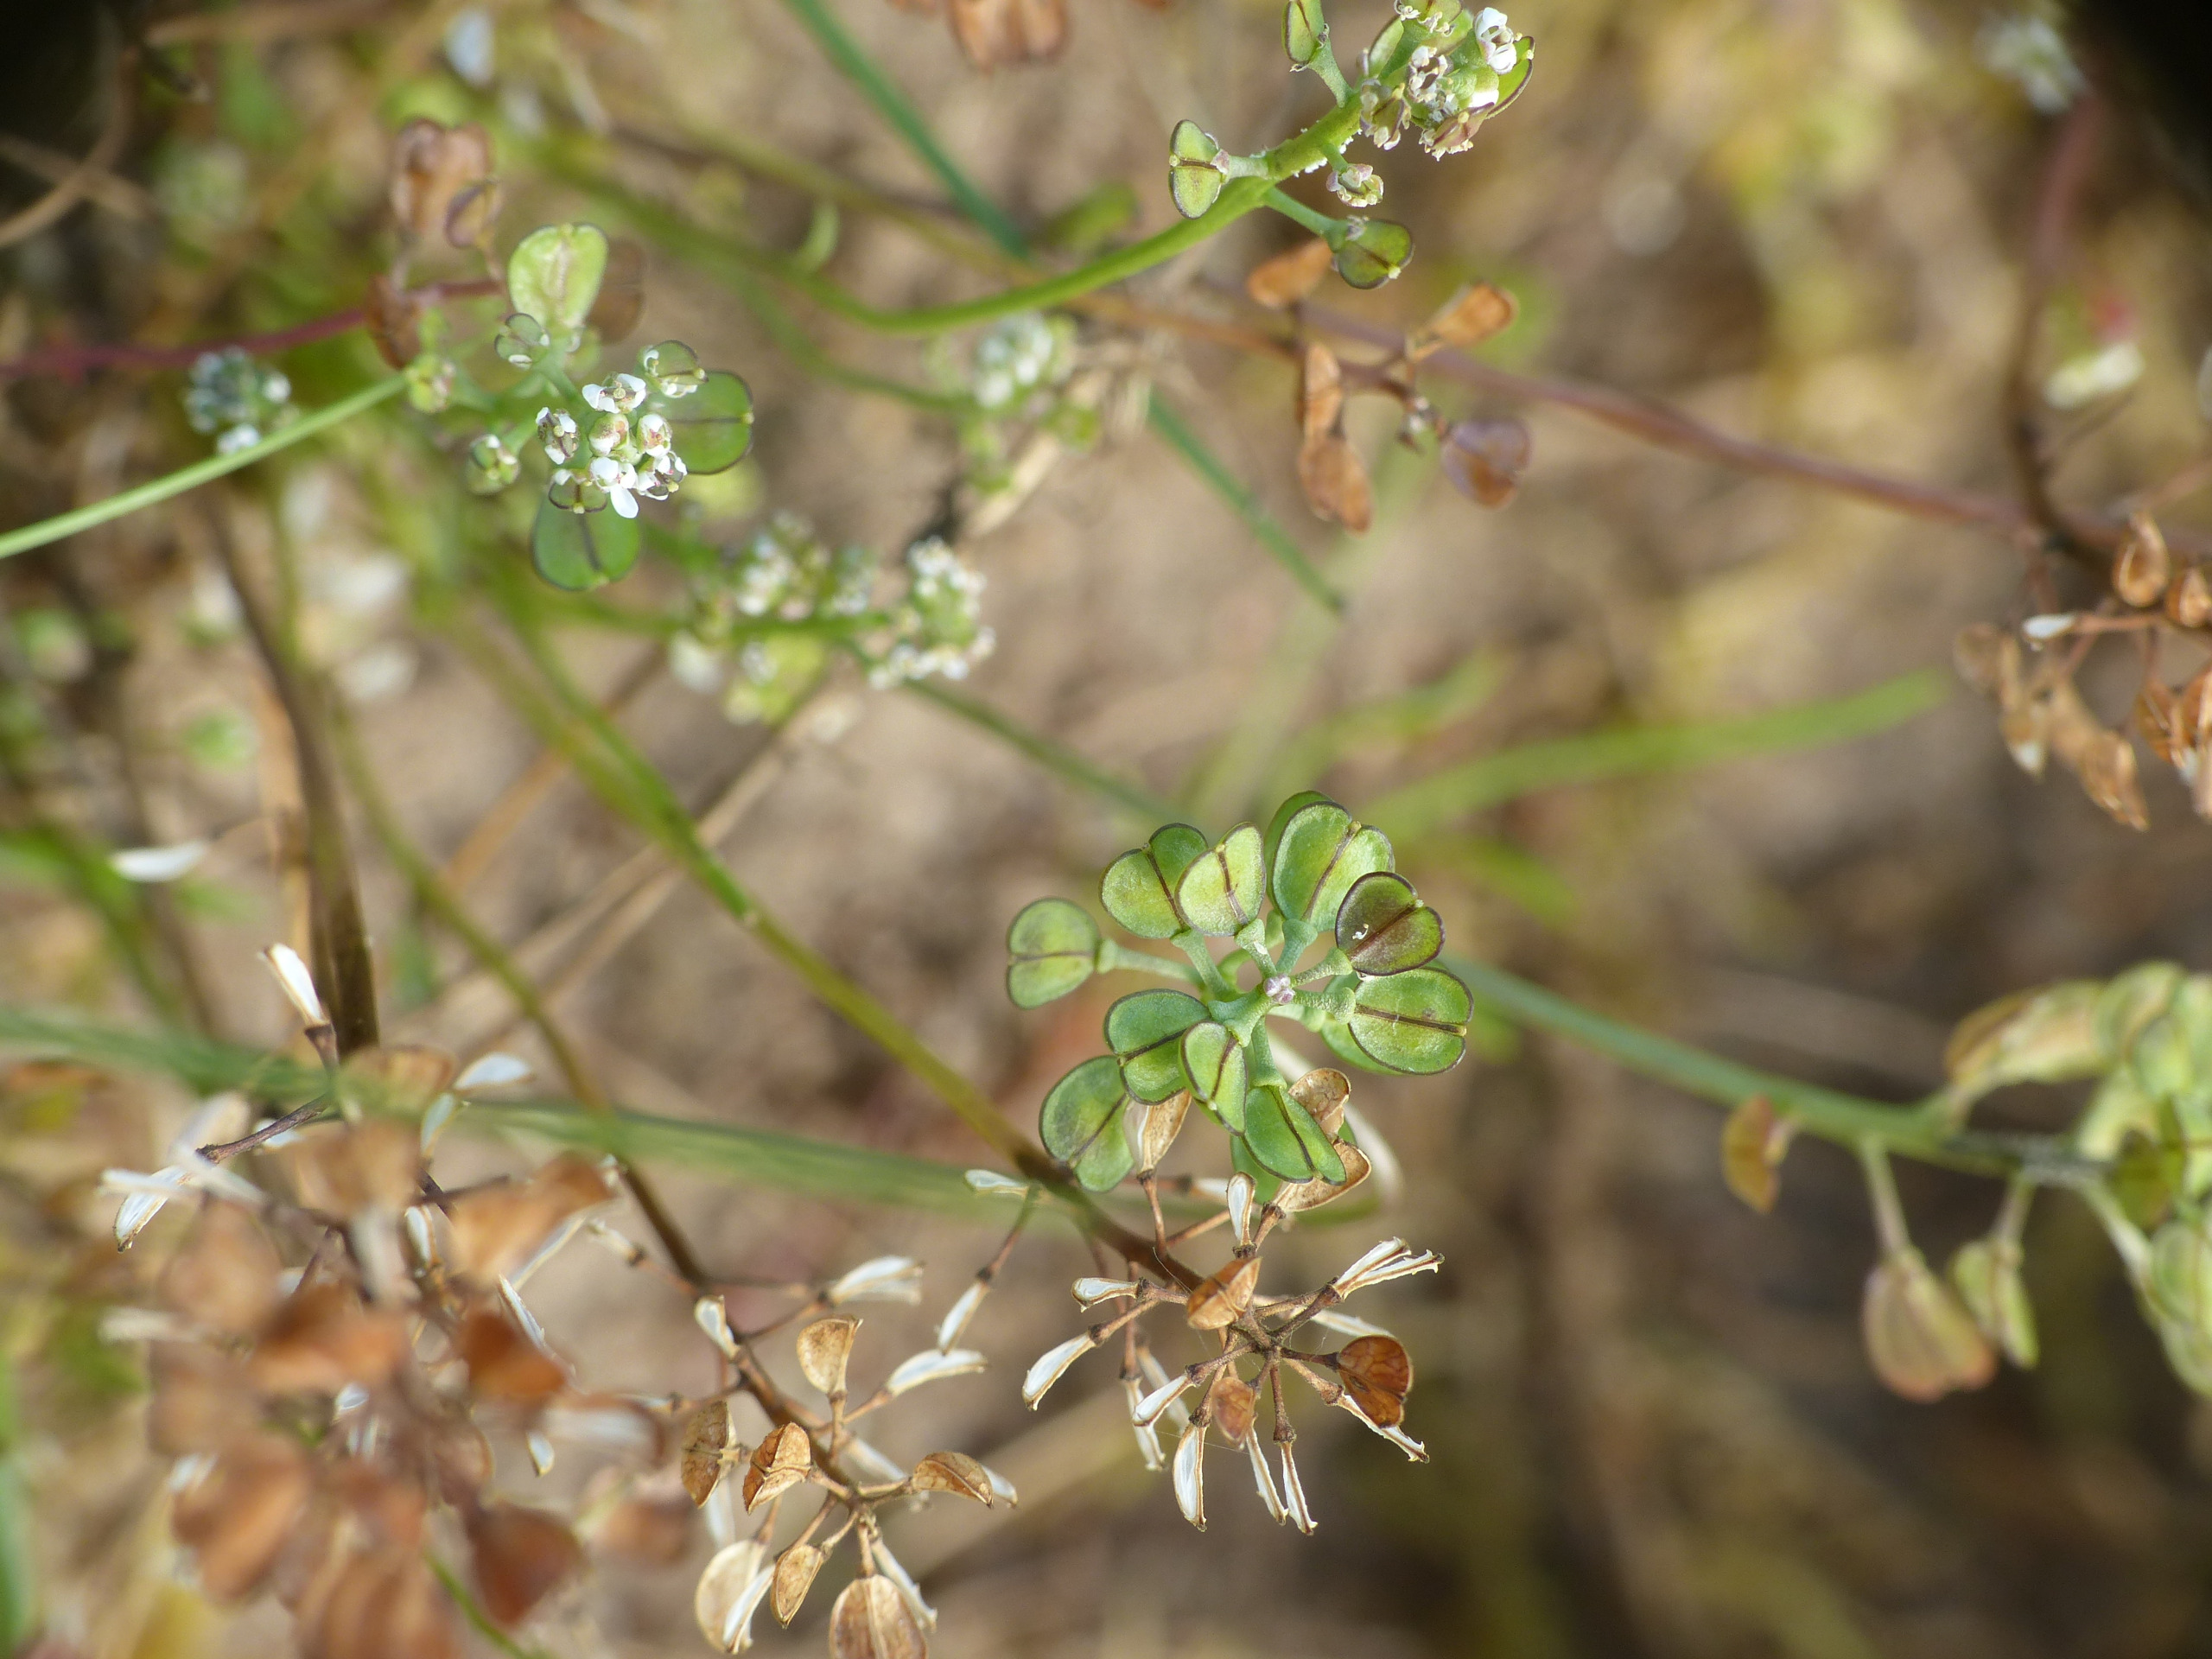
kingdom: Plantae
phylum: Tracheophyta
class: Magnoliopsida
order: Brassicales
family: Brassicaceae
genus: Teesdalia
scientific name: Teesdalia nudicaulis
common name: Flipkrave
